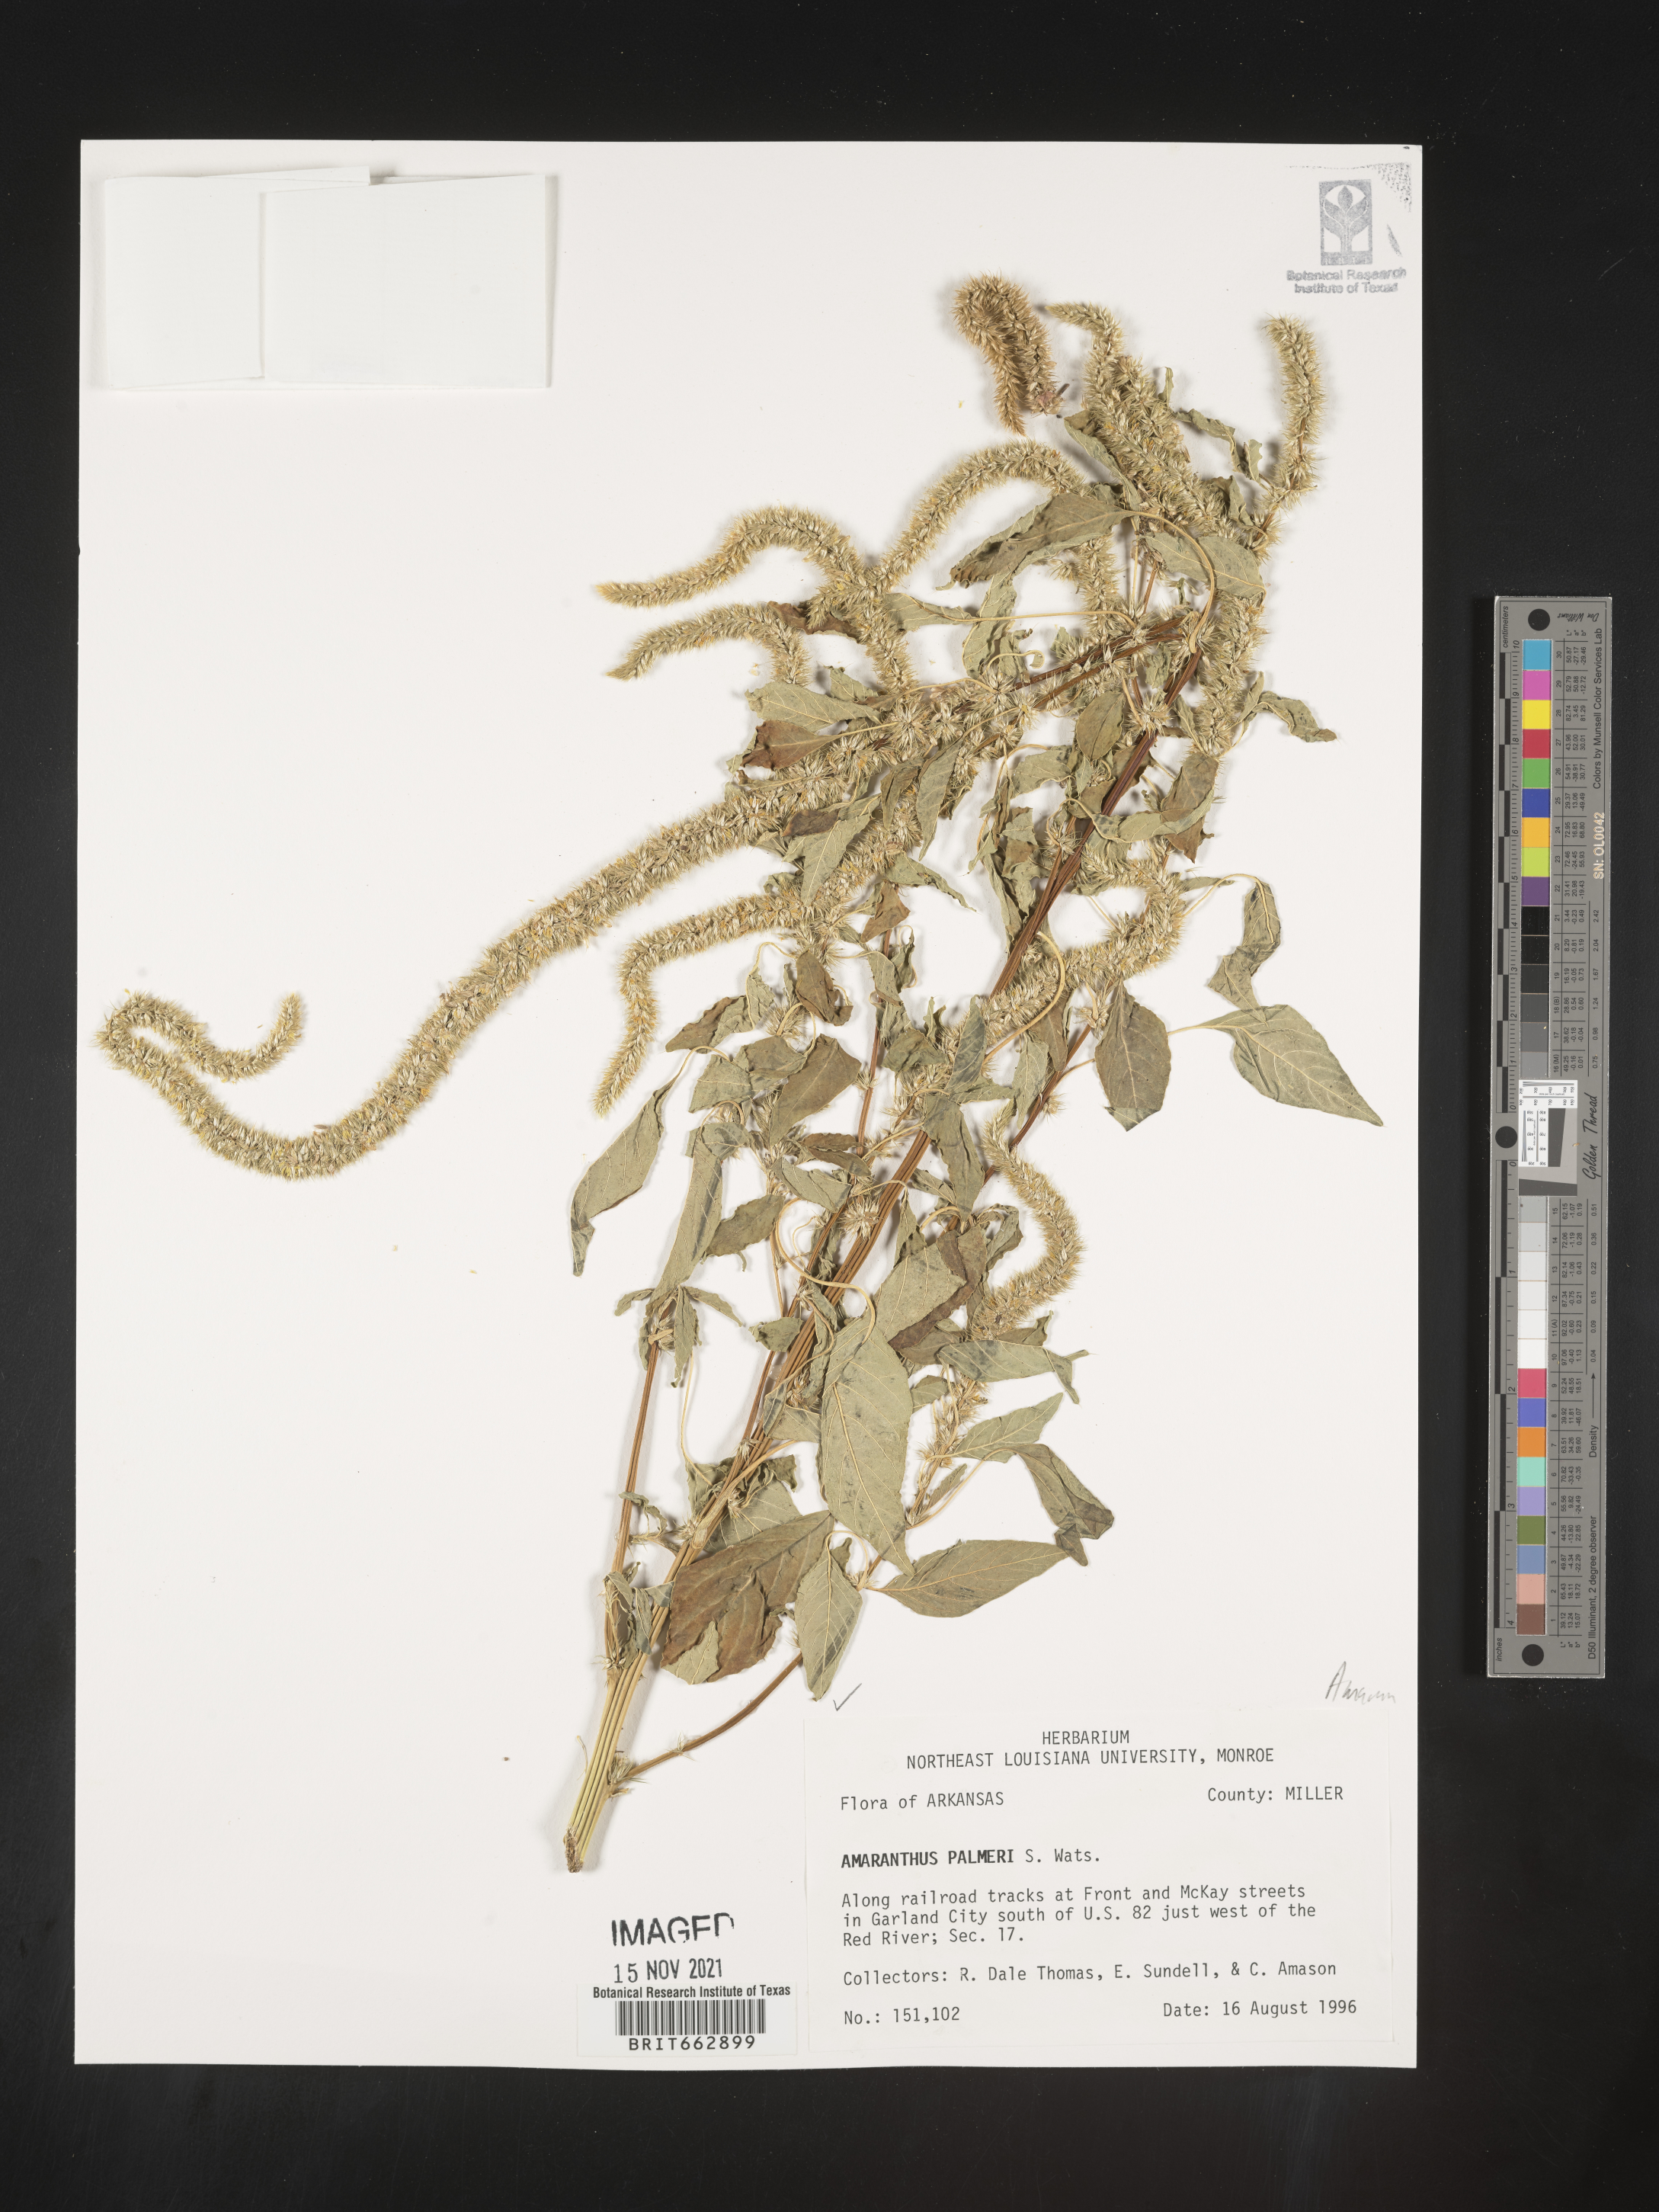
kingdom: Plantae
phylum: Tracheophyta
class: Magnoliopsida
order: Caryophyllales
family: Amaranthaceae
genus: Amaranthus
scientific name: Amaranthus palmeri
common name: Dioecious amaranth
